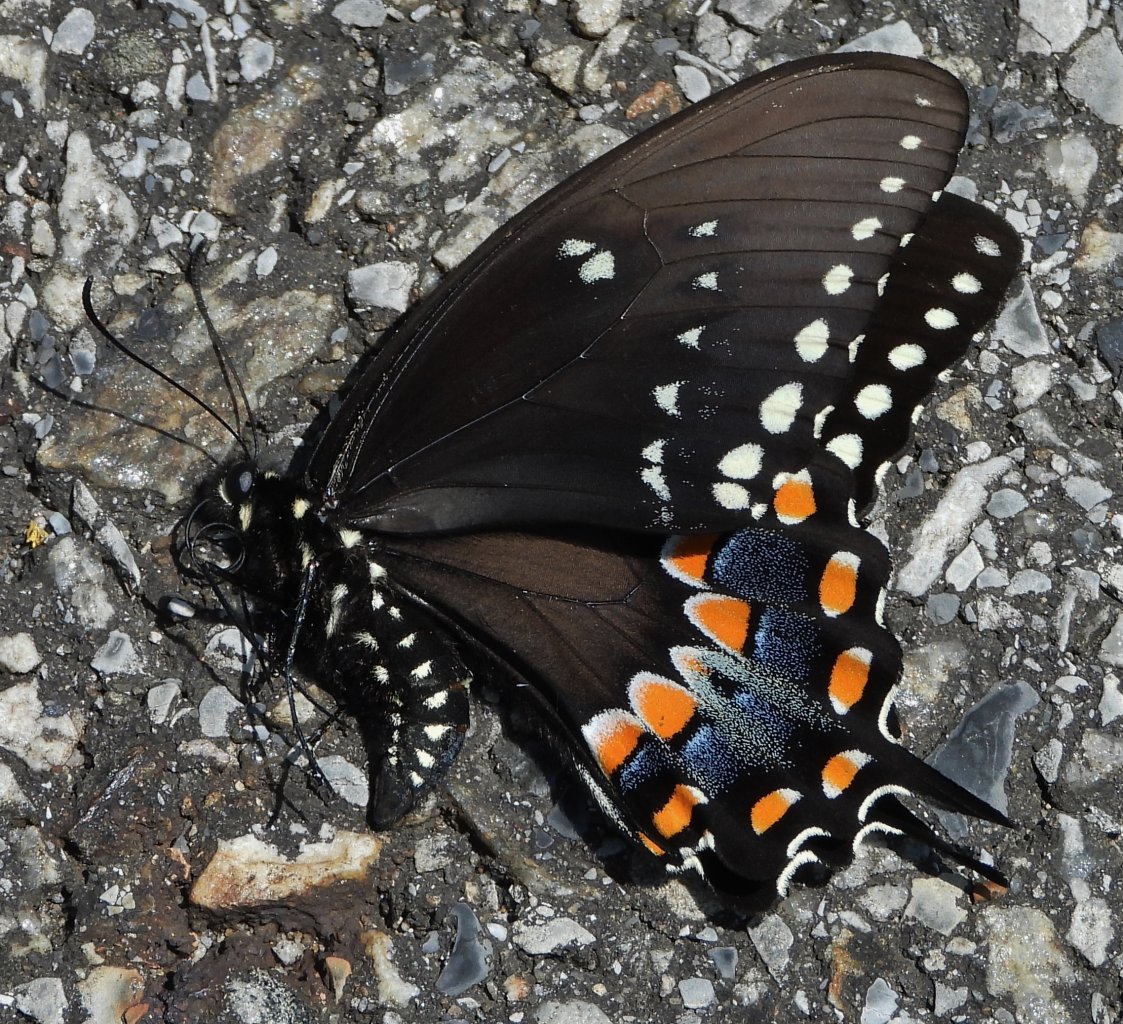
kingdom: Animalia
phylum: Arthropoda
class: Insecta
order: Lepidoptera
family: Papilionidae
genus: Pterourus
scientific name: Pterourus troilus
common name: Spicebush Swallowtail
